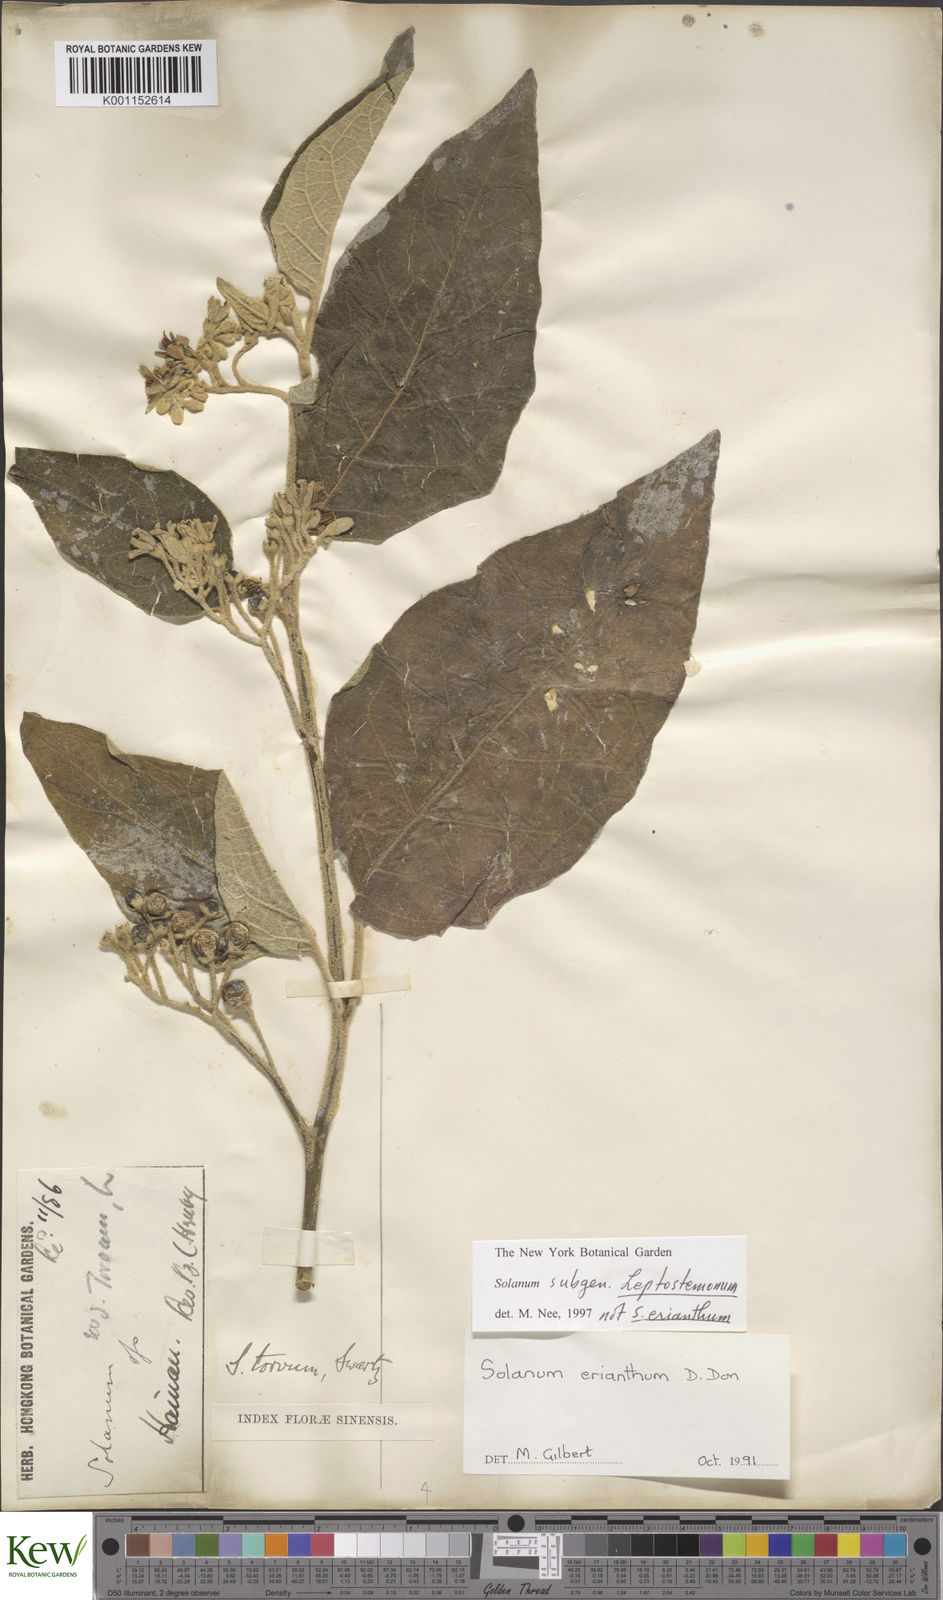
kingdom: Plantae
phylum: Tracheophyta
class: Magnoliopsida
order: Solanales
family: Solanaceae
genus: Solanum
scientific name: Solanum
